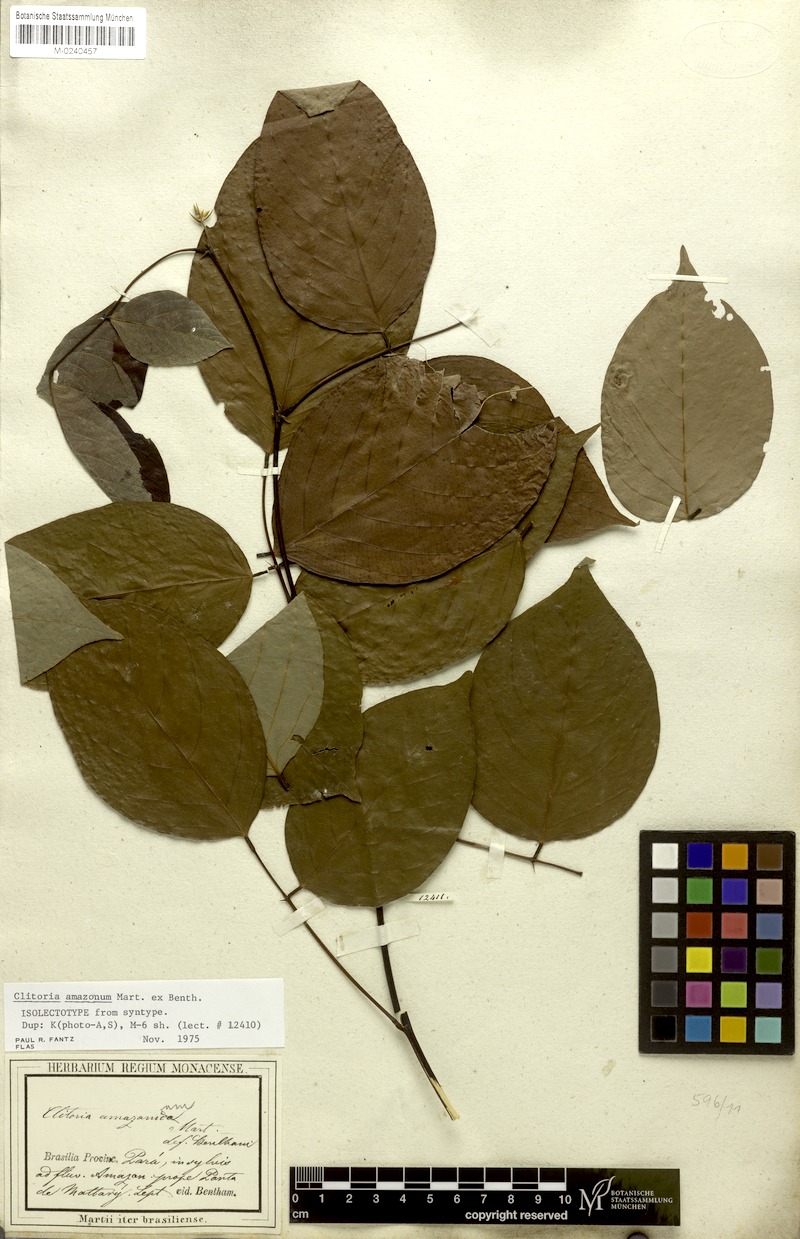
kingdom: Plantae
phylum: Tracheophyta
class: Magnoliopsida
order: Fabales
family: Fabaceae
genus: Clitoria
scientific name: Clitoria amazonum
